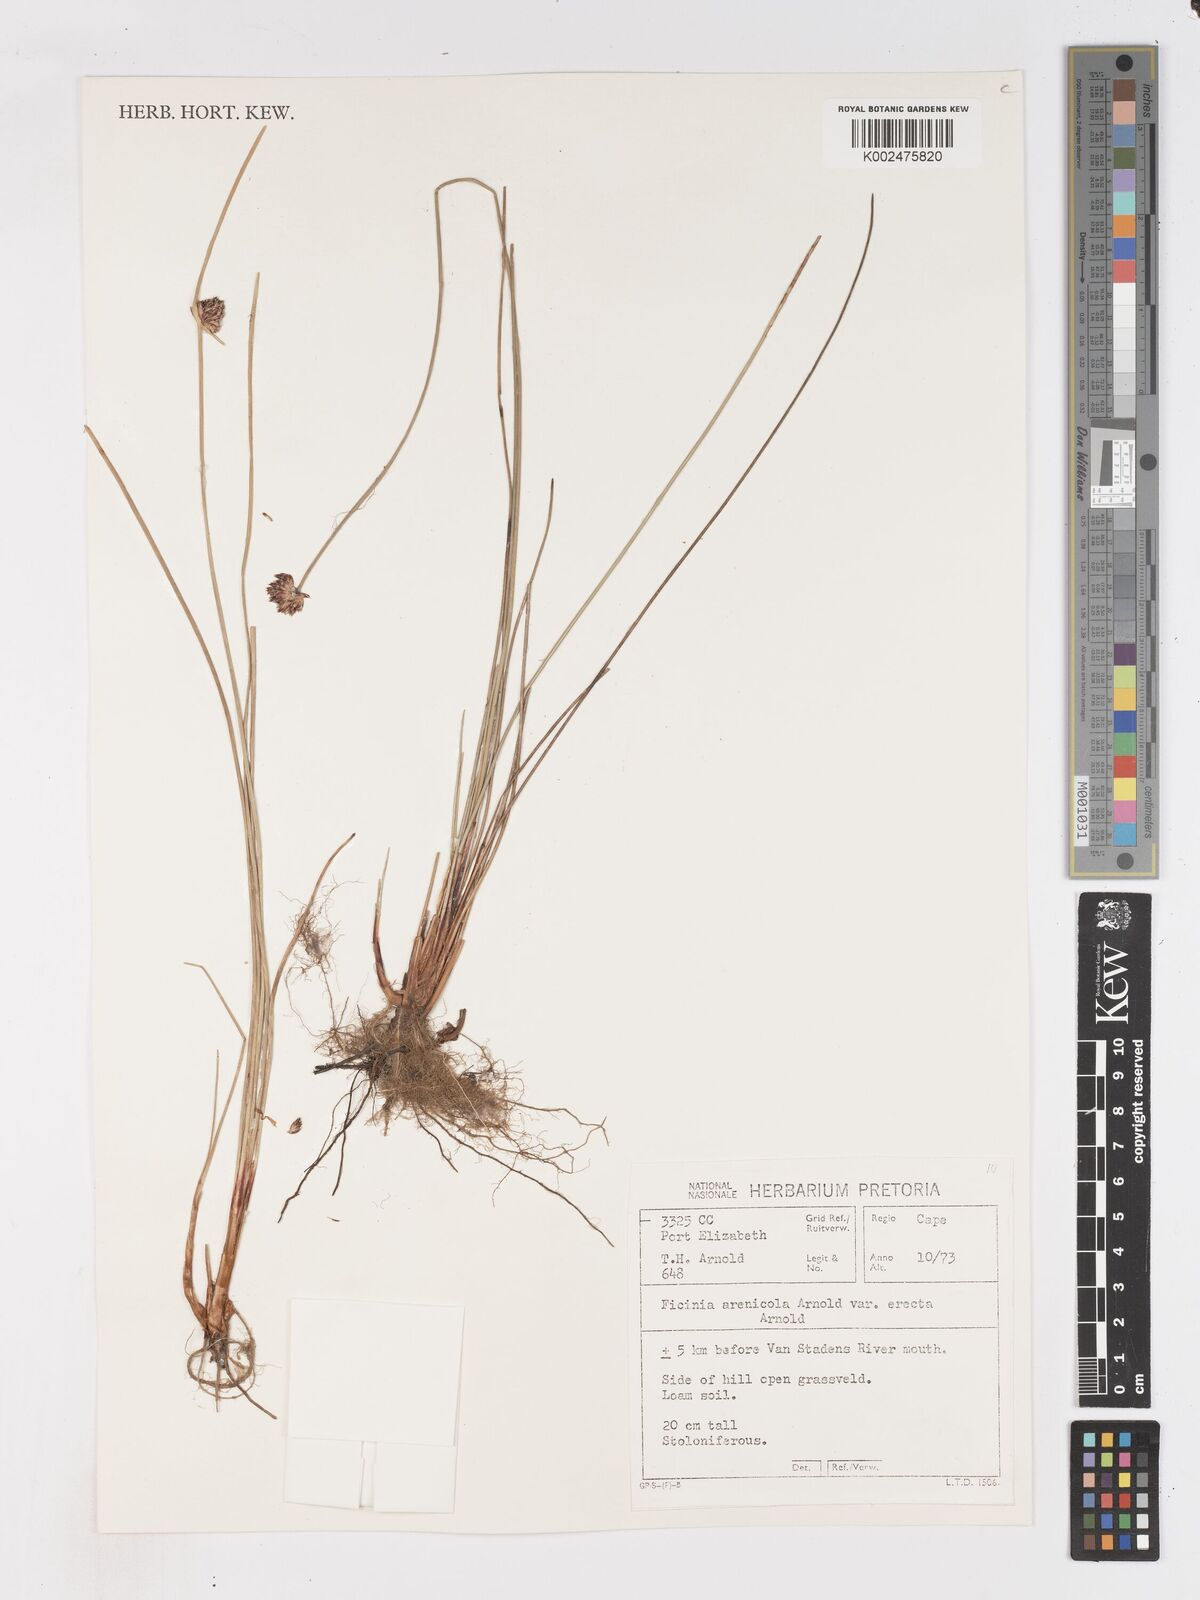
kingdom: Plantae
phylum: Tracheophyta
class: Liliopsida
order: Poales
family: Cyperaceae
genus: Ficinia
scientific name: Ficinia arenicola
